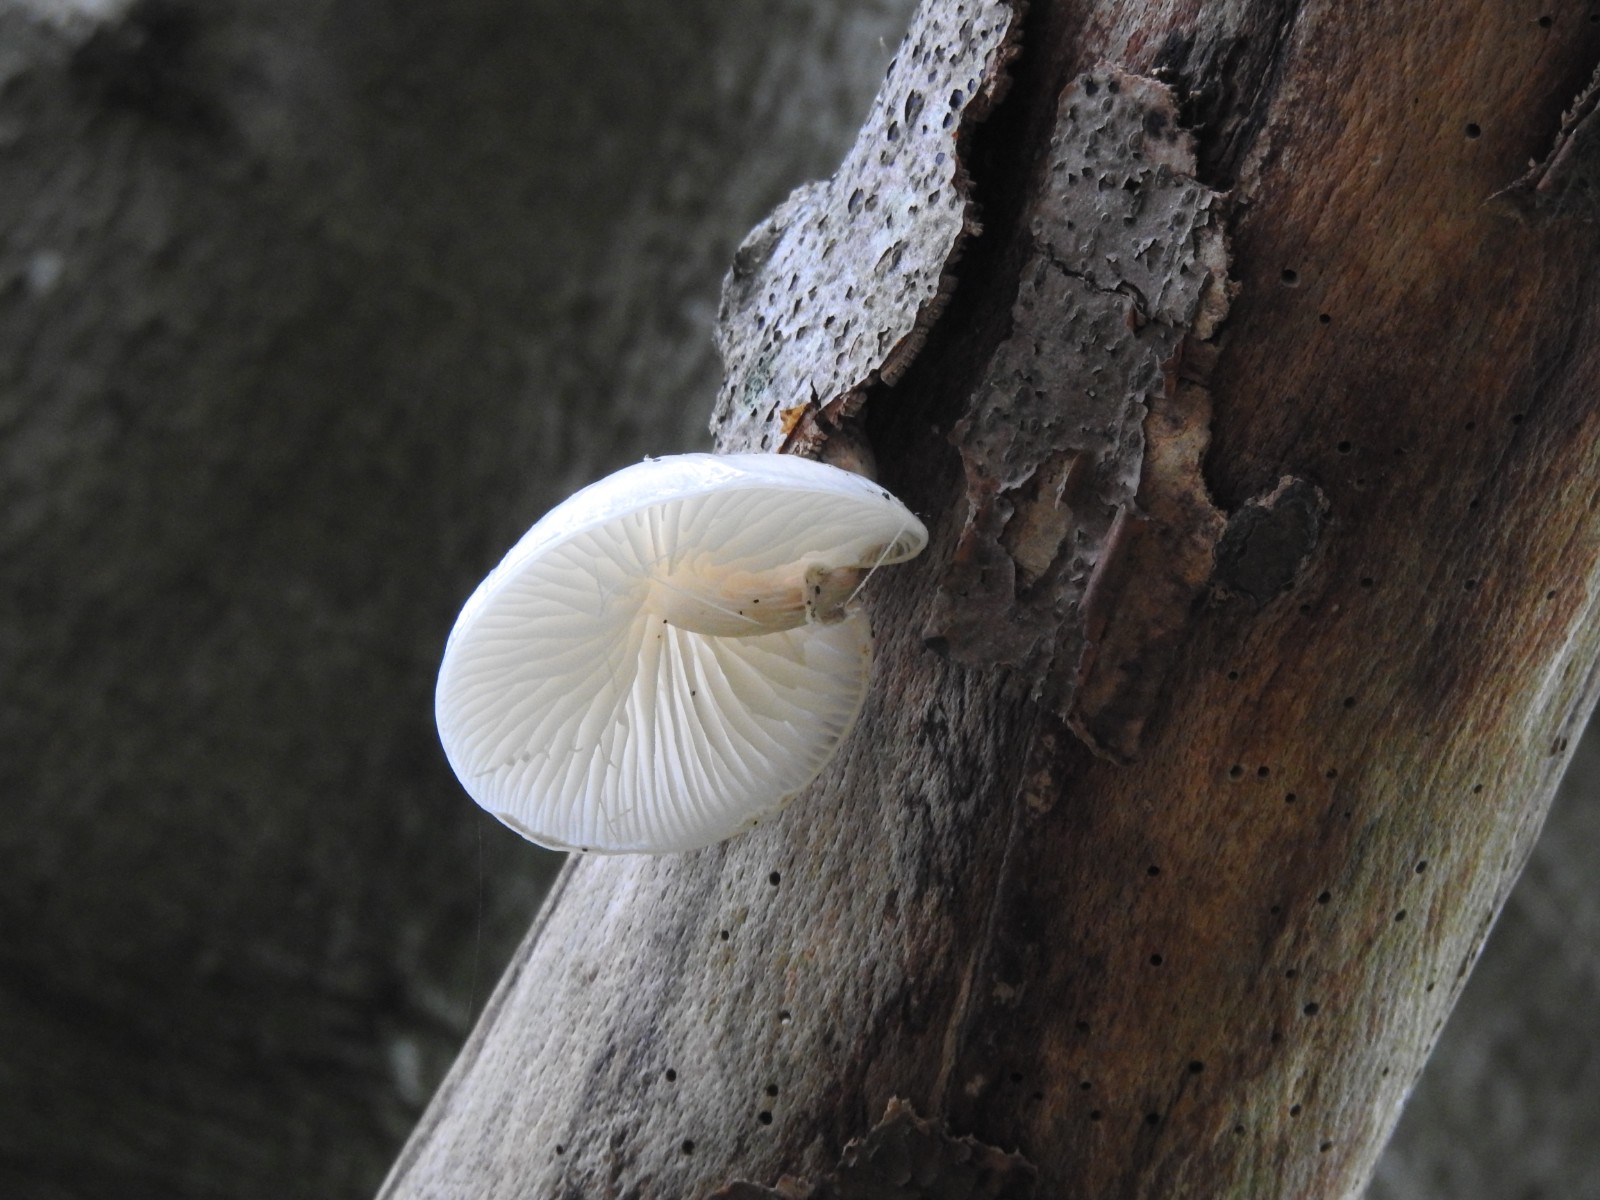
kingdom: Fungi
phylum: Basidiomycota
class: Agaricomycetes
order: Agaricales
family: Physalacriaceae
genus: Mucidula
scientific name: Mucidula mucida
